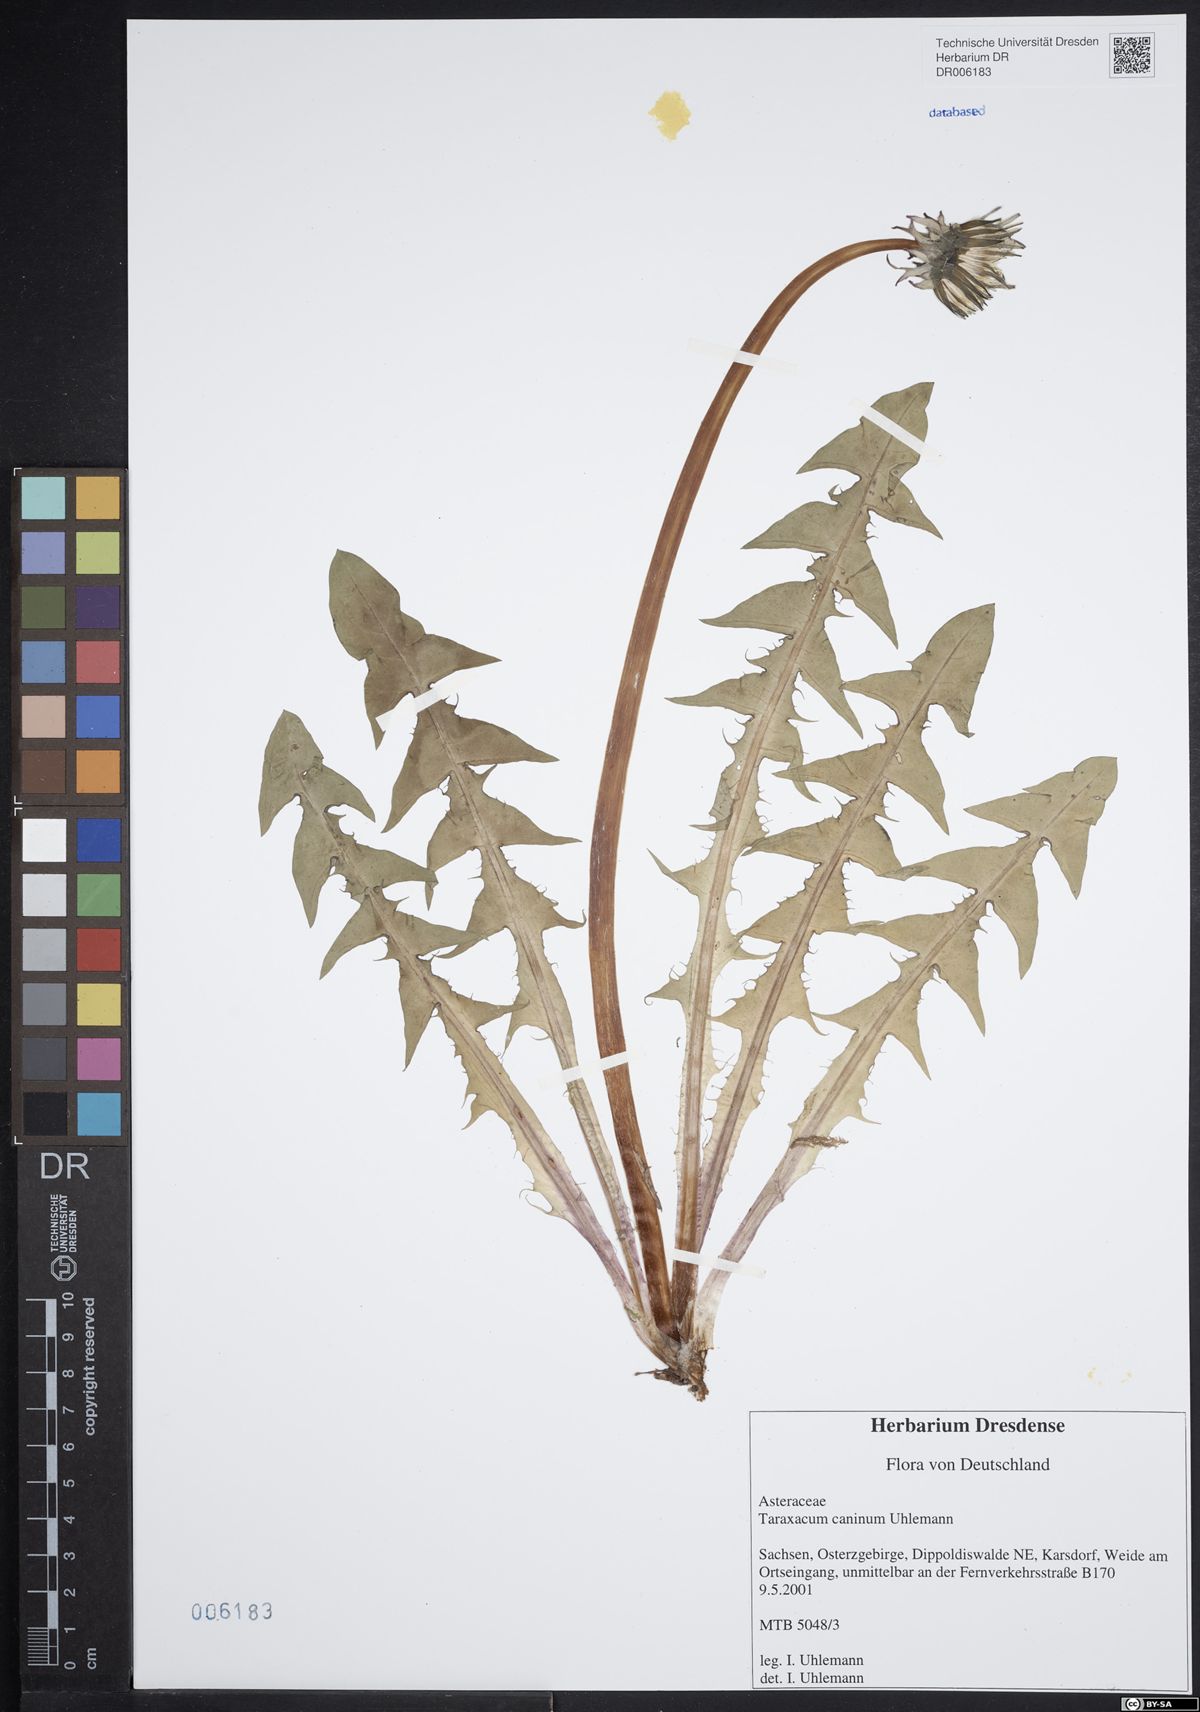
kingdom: Plantae
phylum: Tracheophyta
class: Magnoliopsida
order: Asterales
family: Asteraceae
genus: Taraxacum
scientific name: Taraxacum caninum
